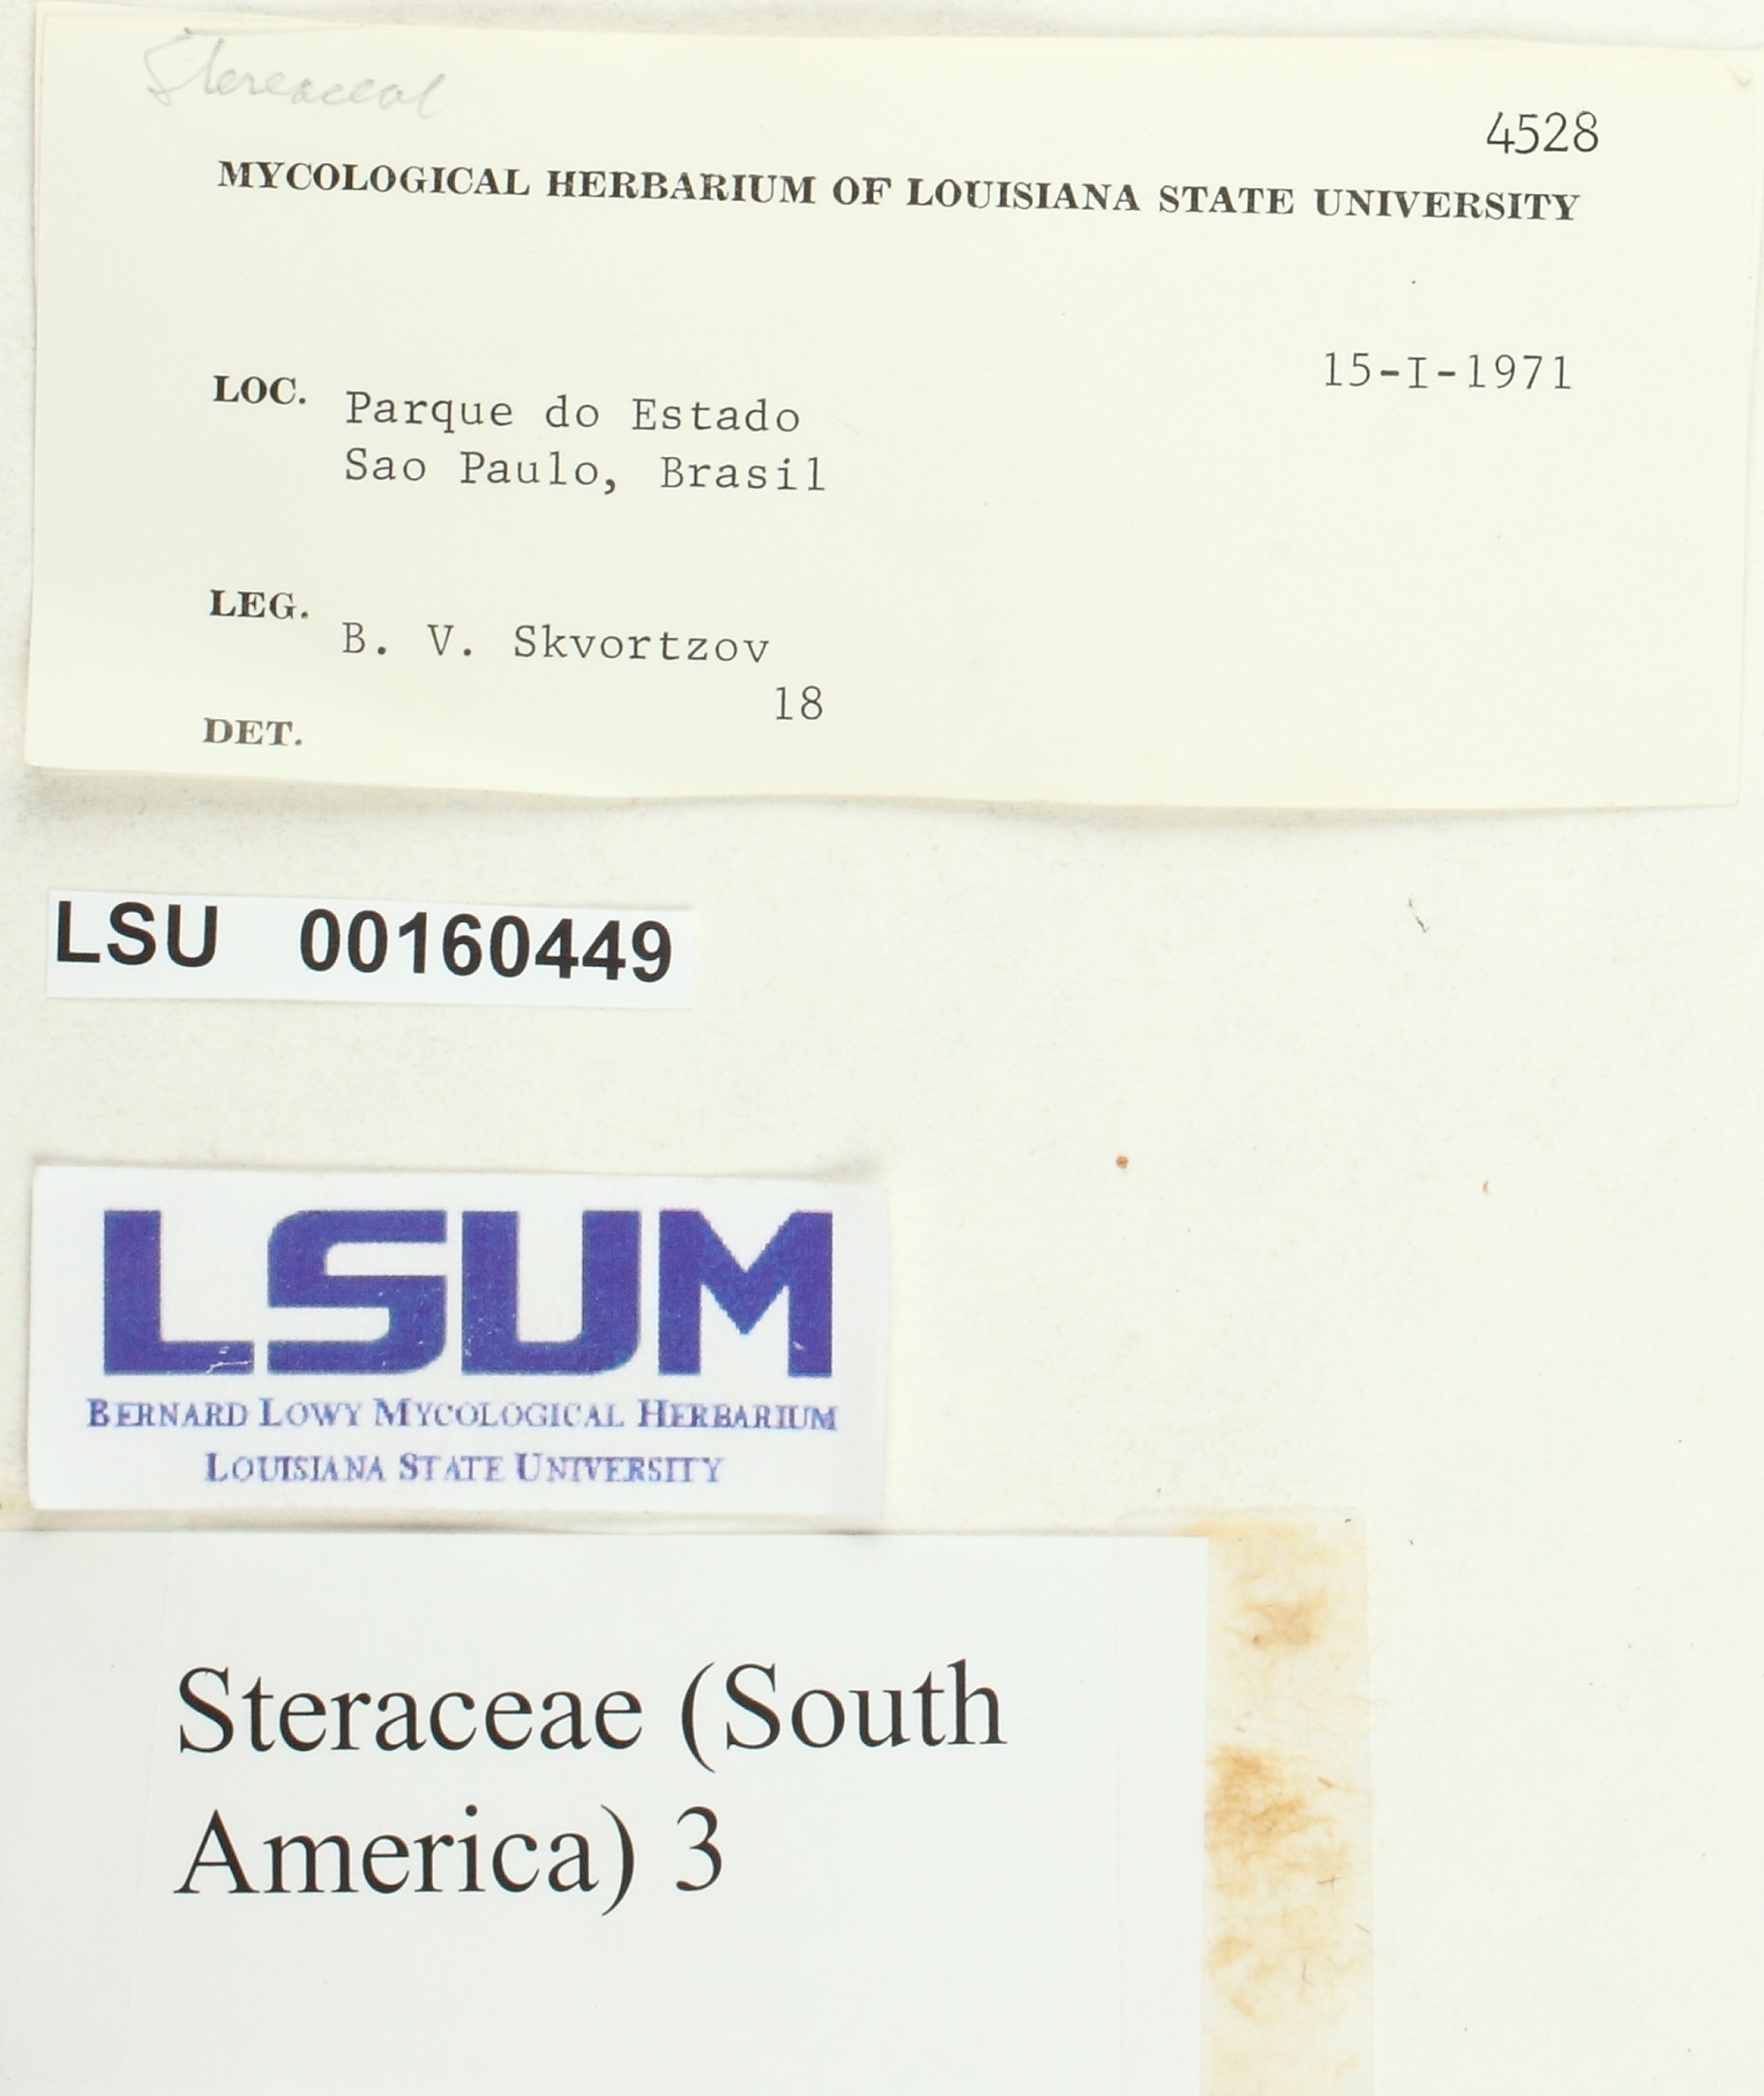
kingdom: Fungi
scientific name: Fungi
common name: Fungi
